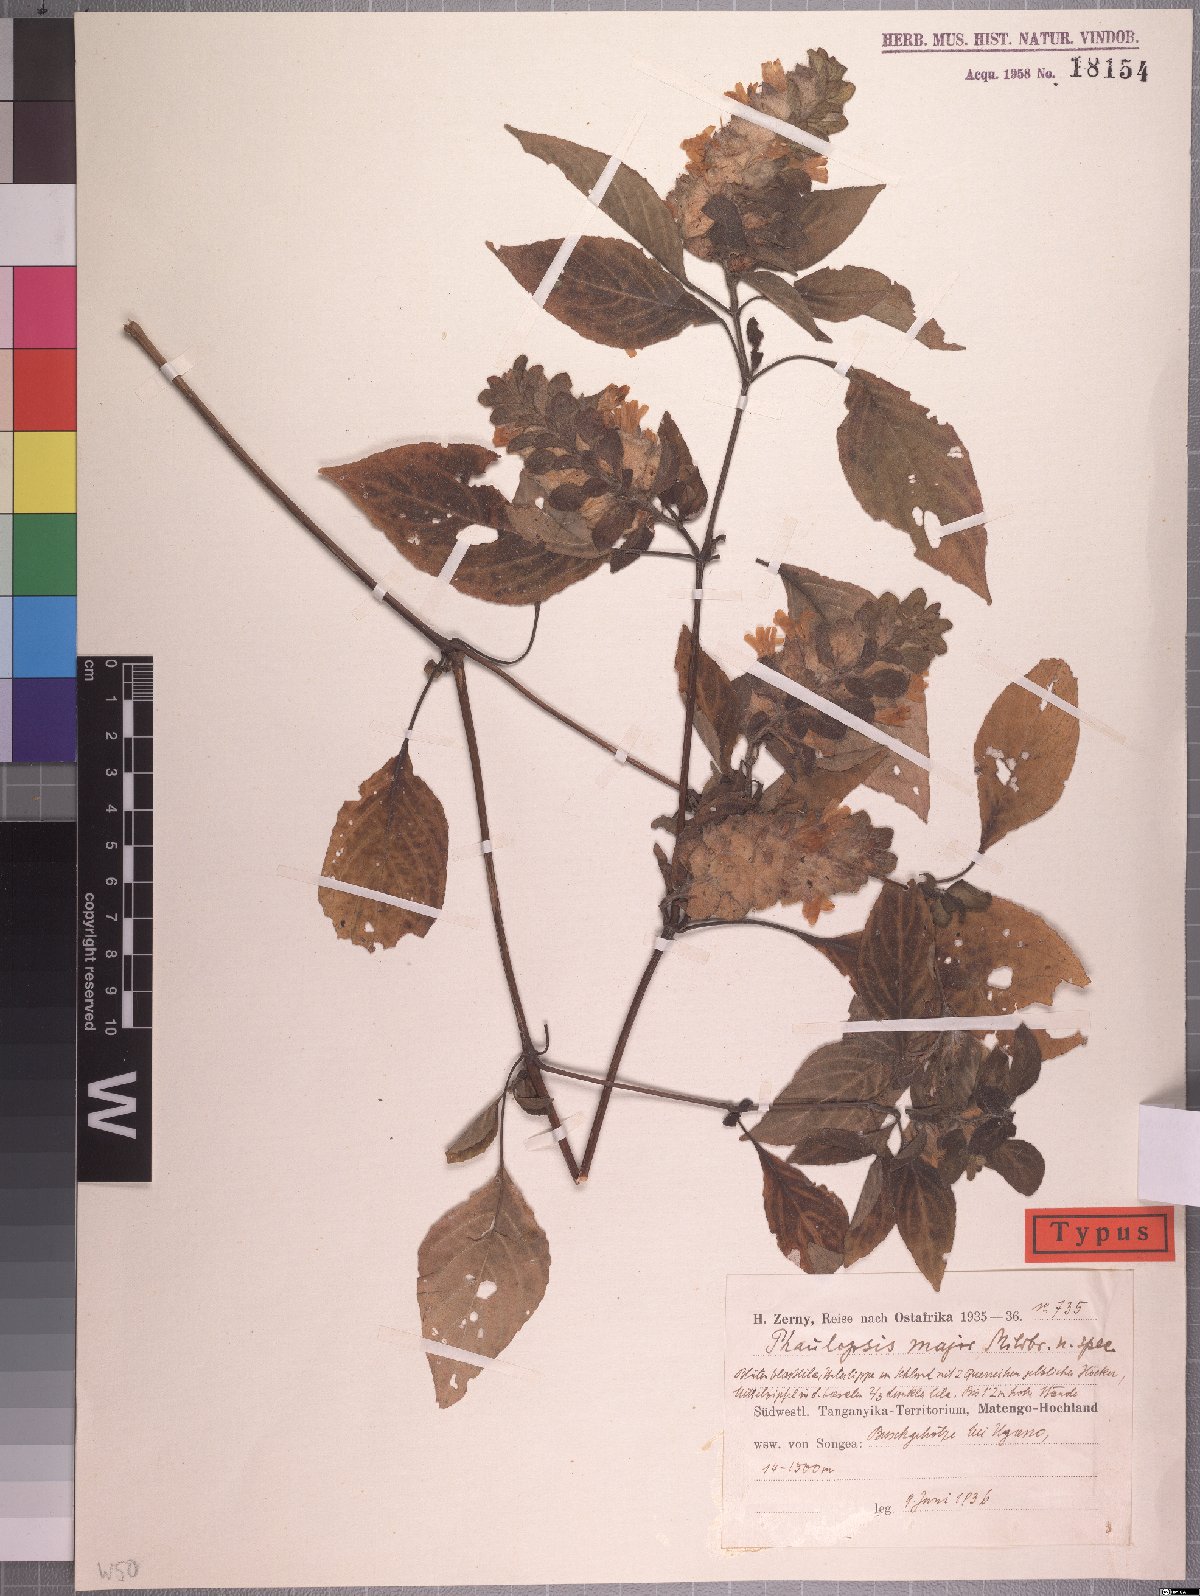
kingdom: Plantae
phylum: Tracheophyta
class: Magnoliopsida
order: Lamiales
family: Acanthaceae
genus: Phaulopsis
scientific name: Phaulopsis sangana
